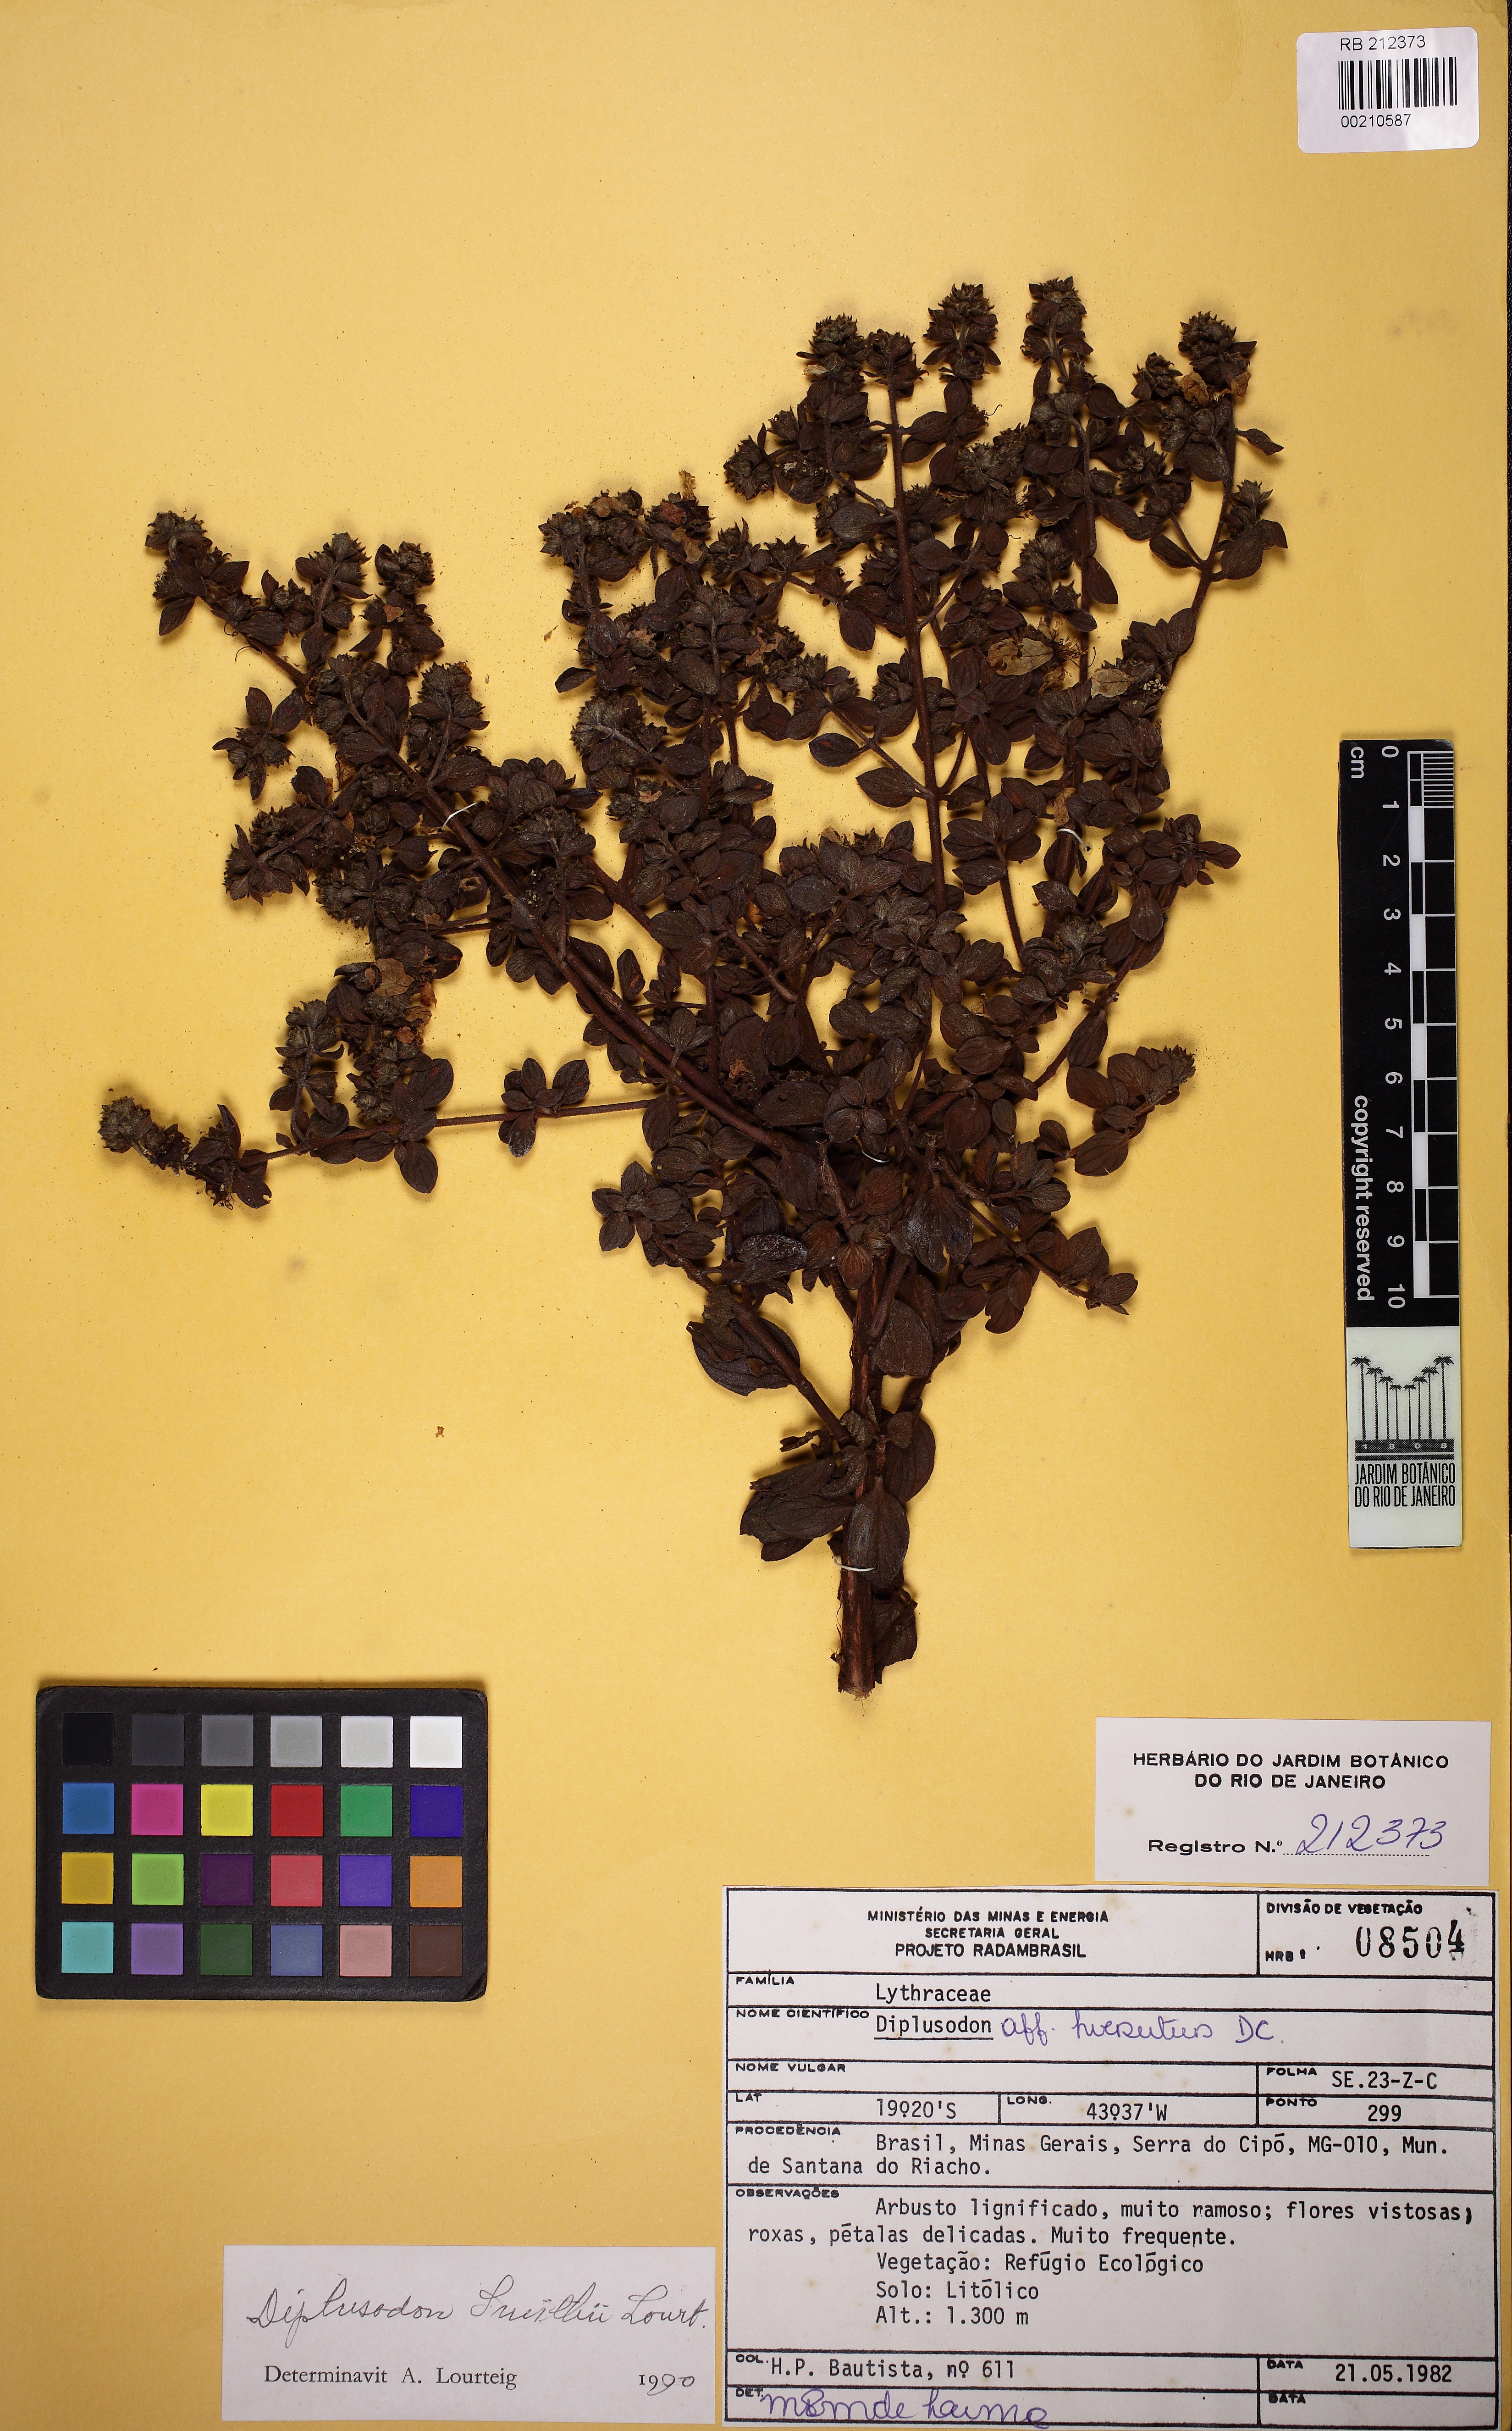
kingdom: Plantae
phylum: Tracheophyta
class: Magnoliopsida
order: Myrtales
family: Lythraceae
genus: Diplusodon
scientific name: Diplusodon hirsutus
